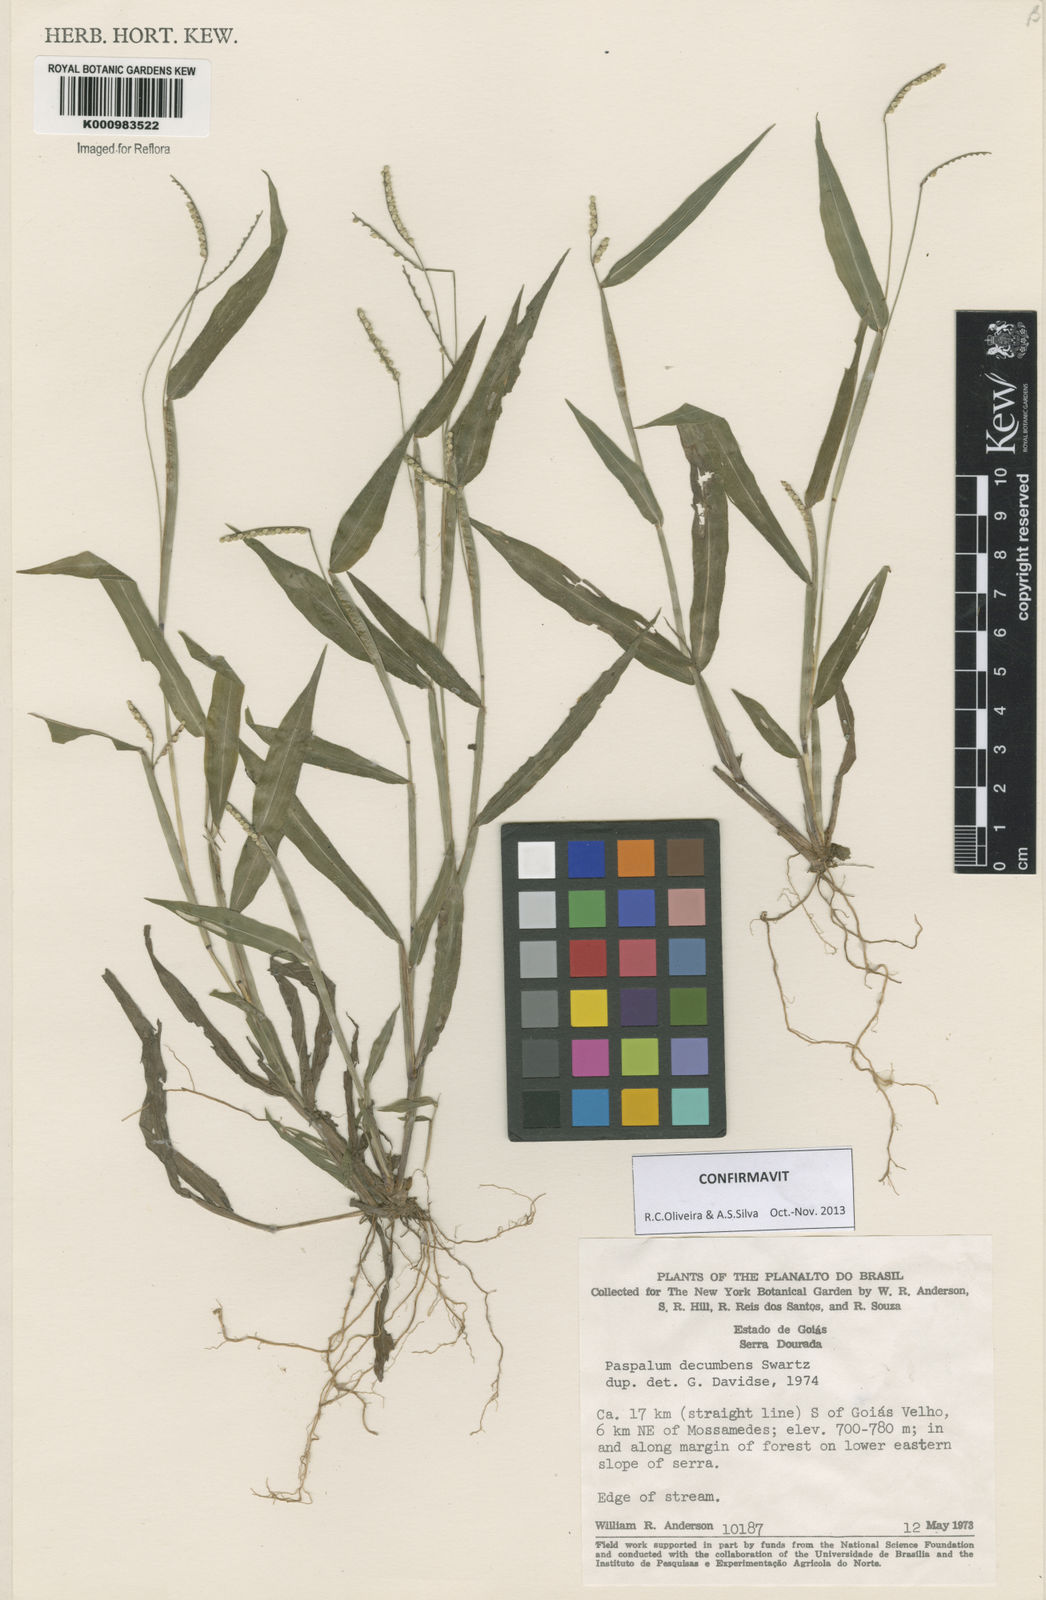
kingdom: Plantae
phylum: Tracheophyta
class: Liliopsida
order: Poales
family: Poaceae
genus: Paspalum
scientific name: Paspalum decumbens
